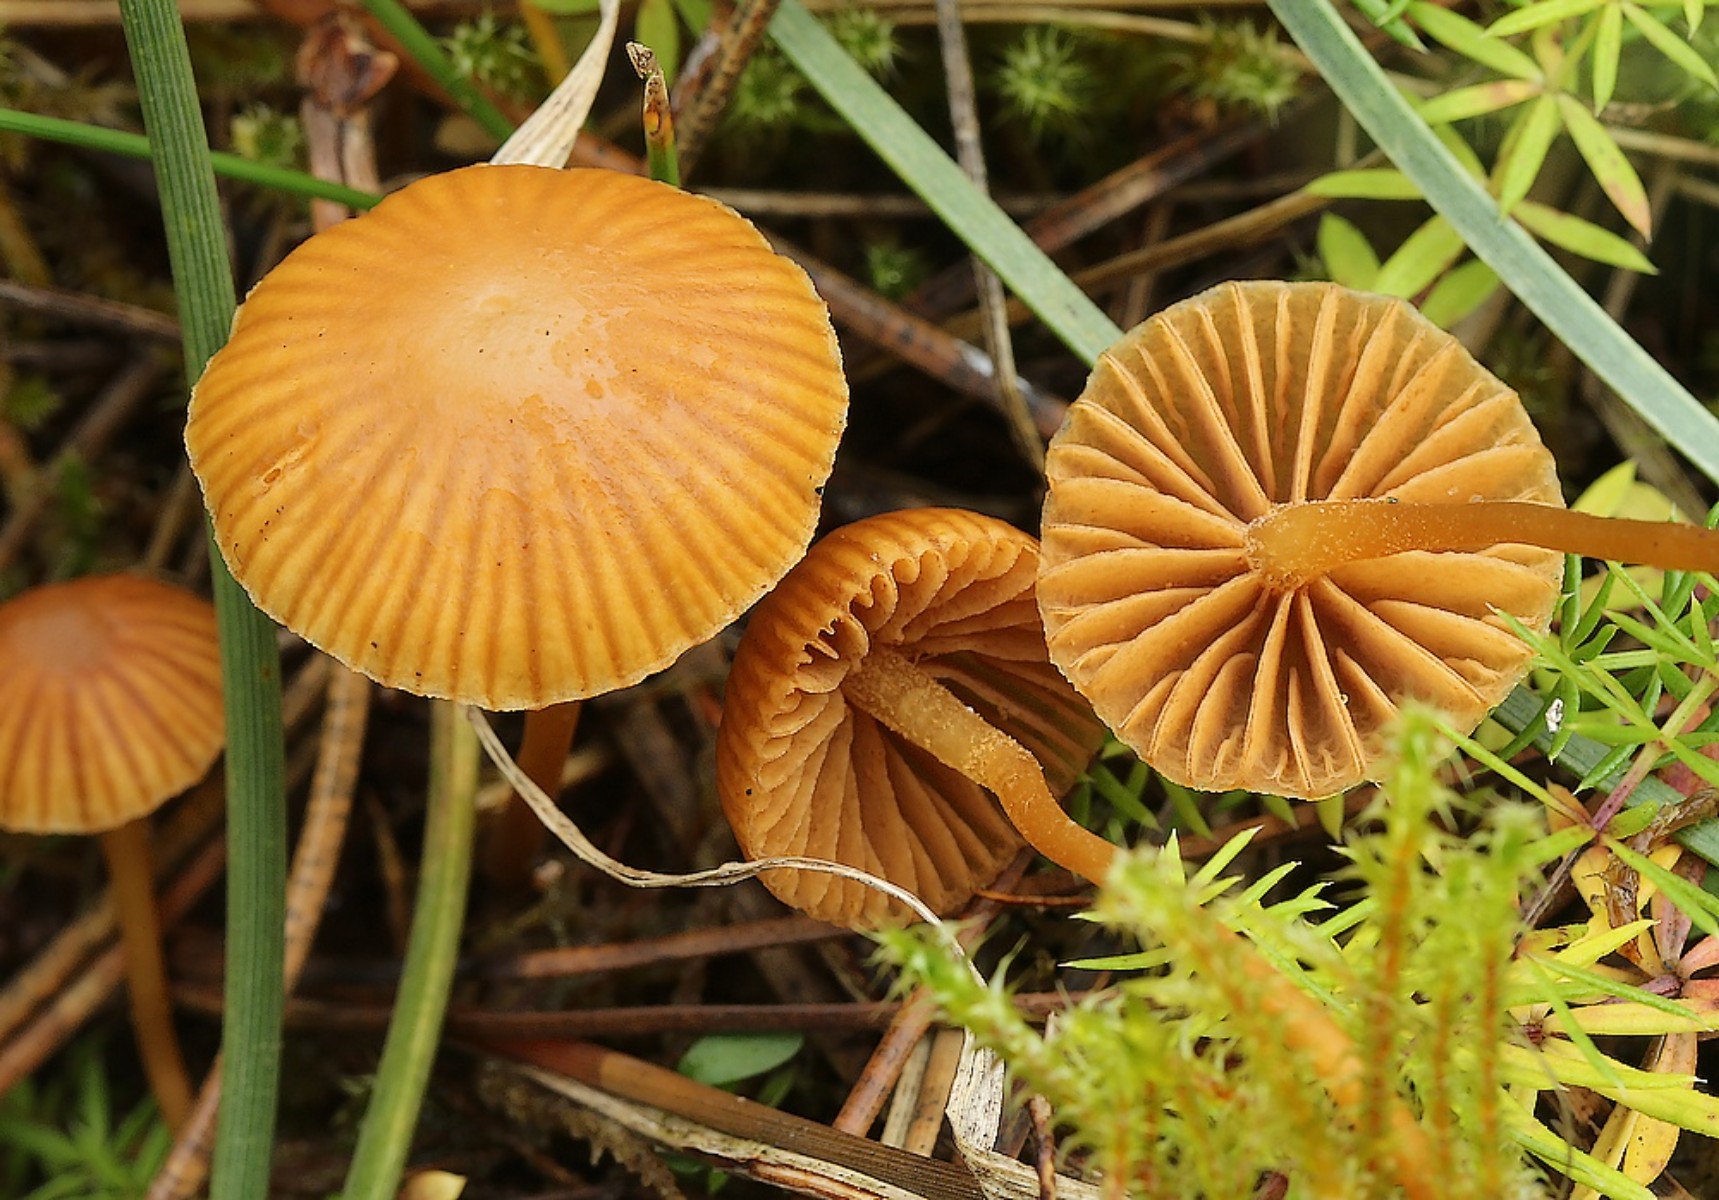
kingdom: Fungi
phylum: Basidiomycota
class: Agaricomycetes
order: Agaricales
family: Hymenogastraceae
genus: Galerina
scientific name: Galerina
